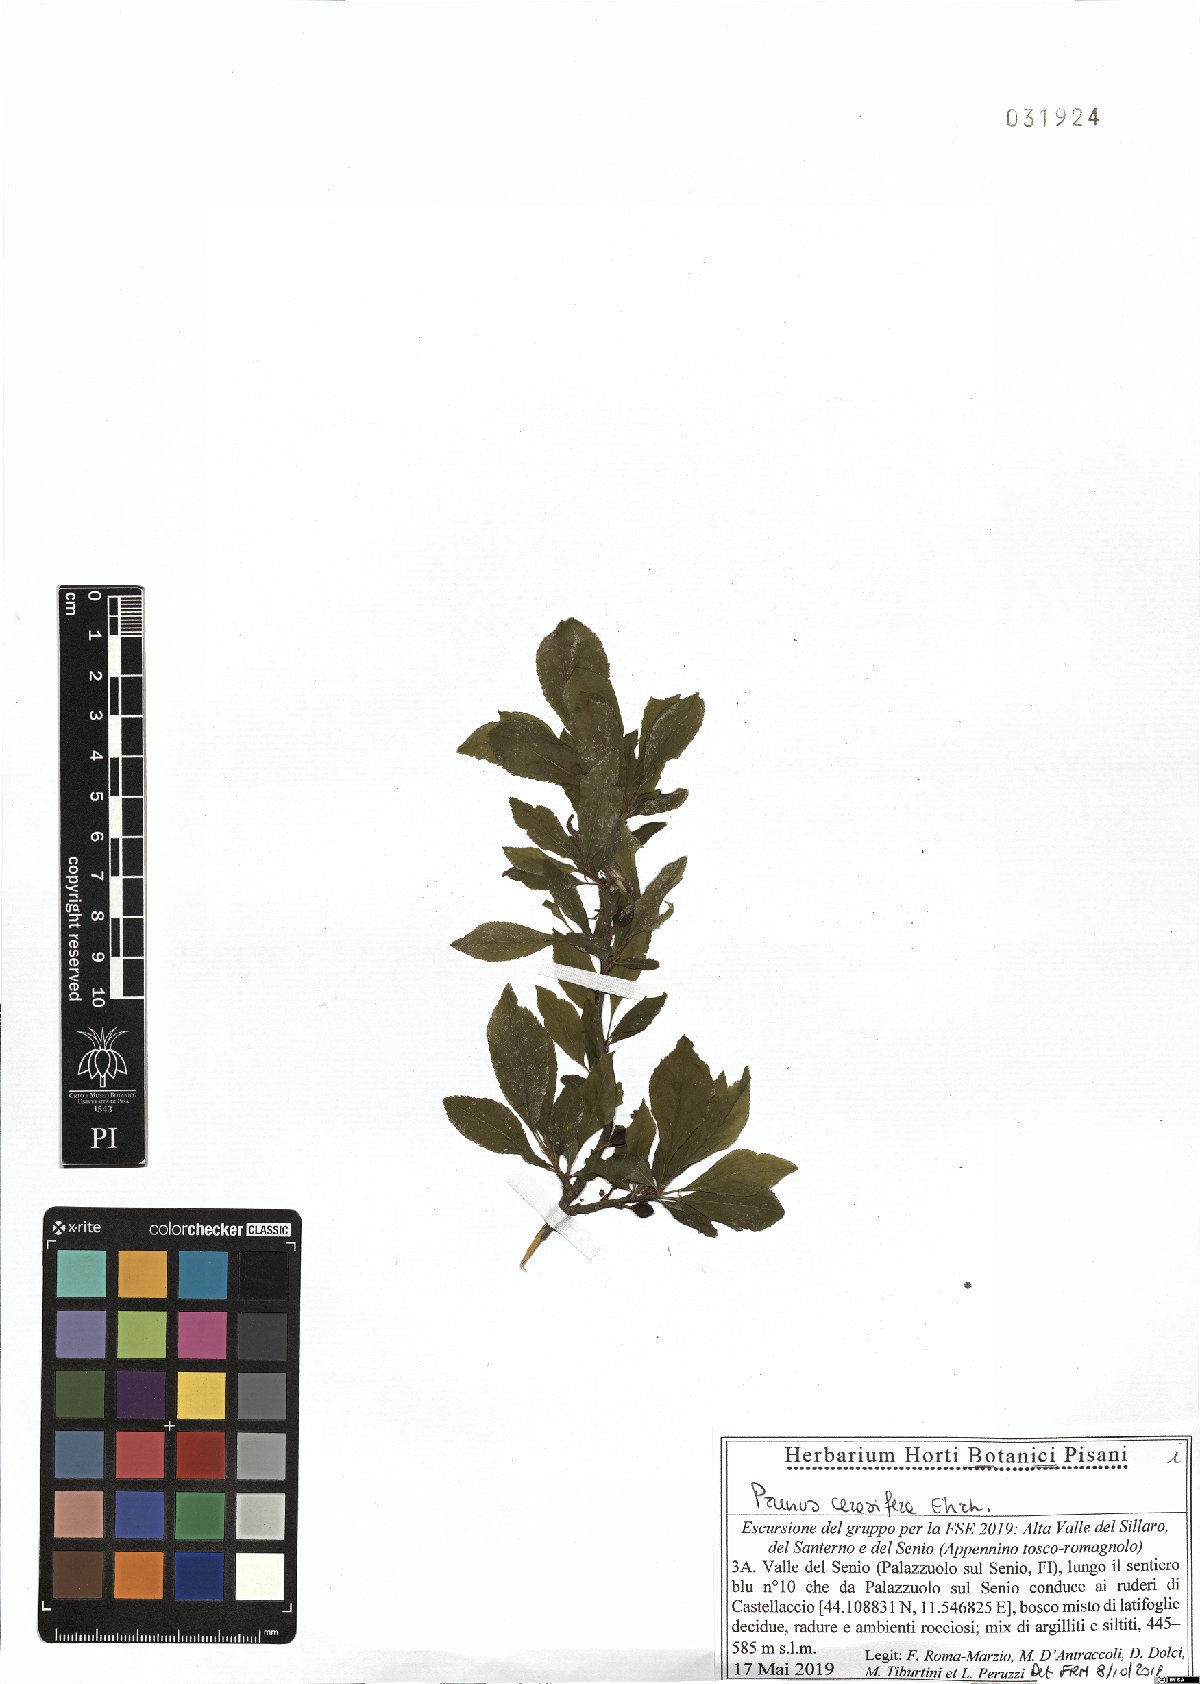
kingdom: Plantae
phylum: Tracheophyta
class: Magnoliopsida
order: Rosales
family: Rosaceae
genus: Prunus
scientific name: Prunus cerasifera
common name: Cherry plum
